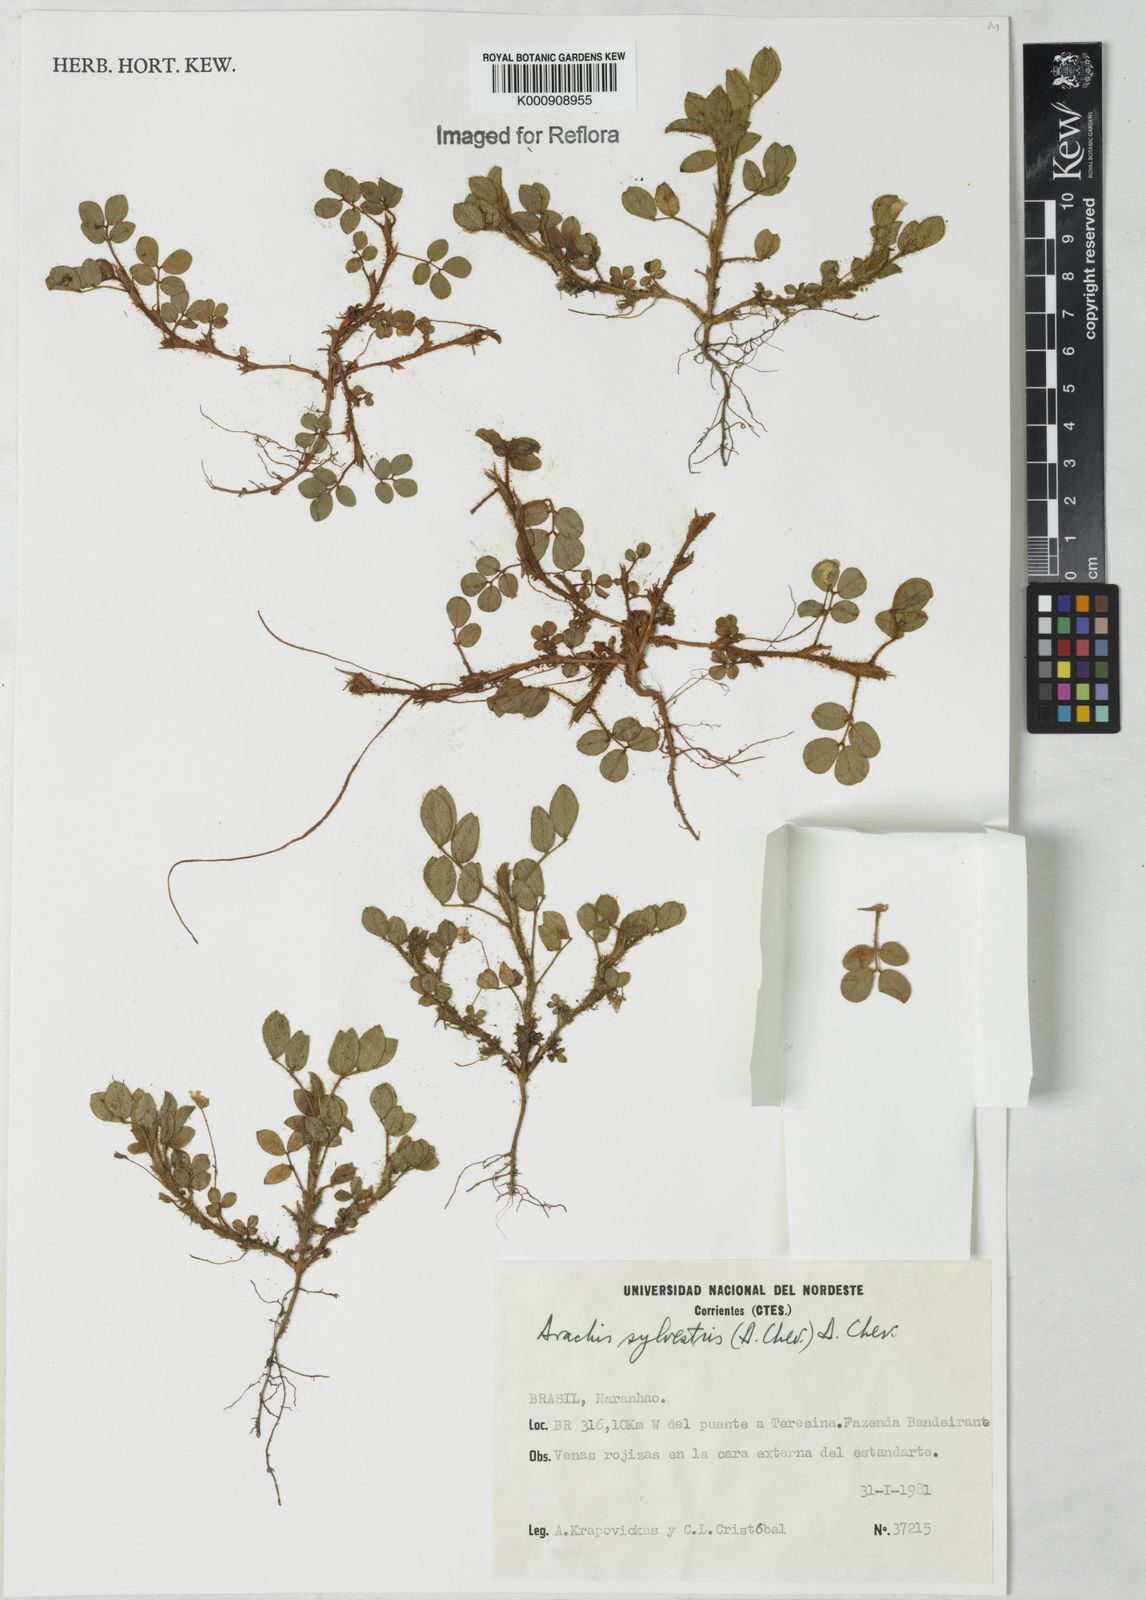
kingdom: Plantae
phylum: Tracheophyta
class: Magnoliopsida
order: Fabales
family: Fabaceae
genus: Arachis
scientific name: Arachis pusilla
